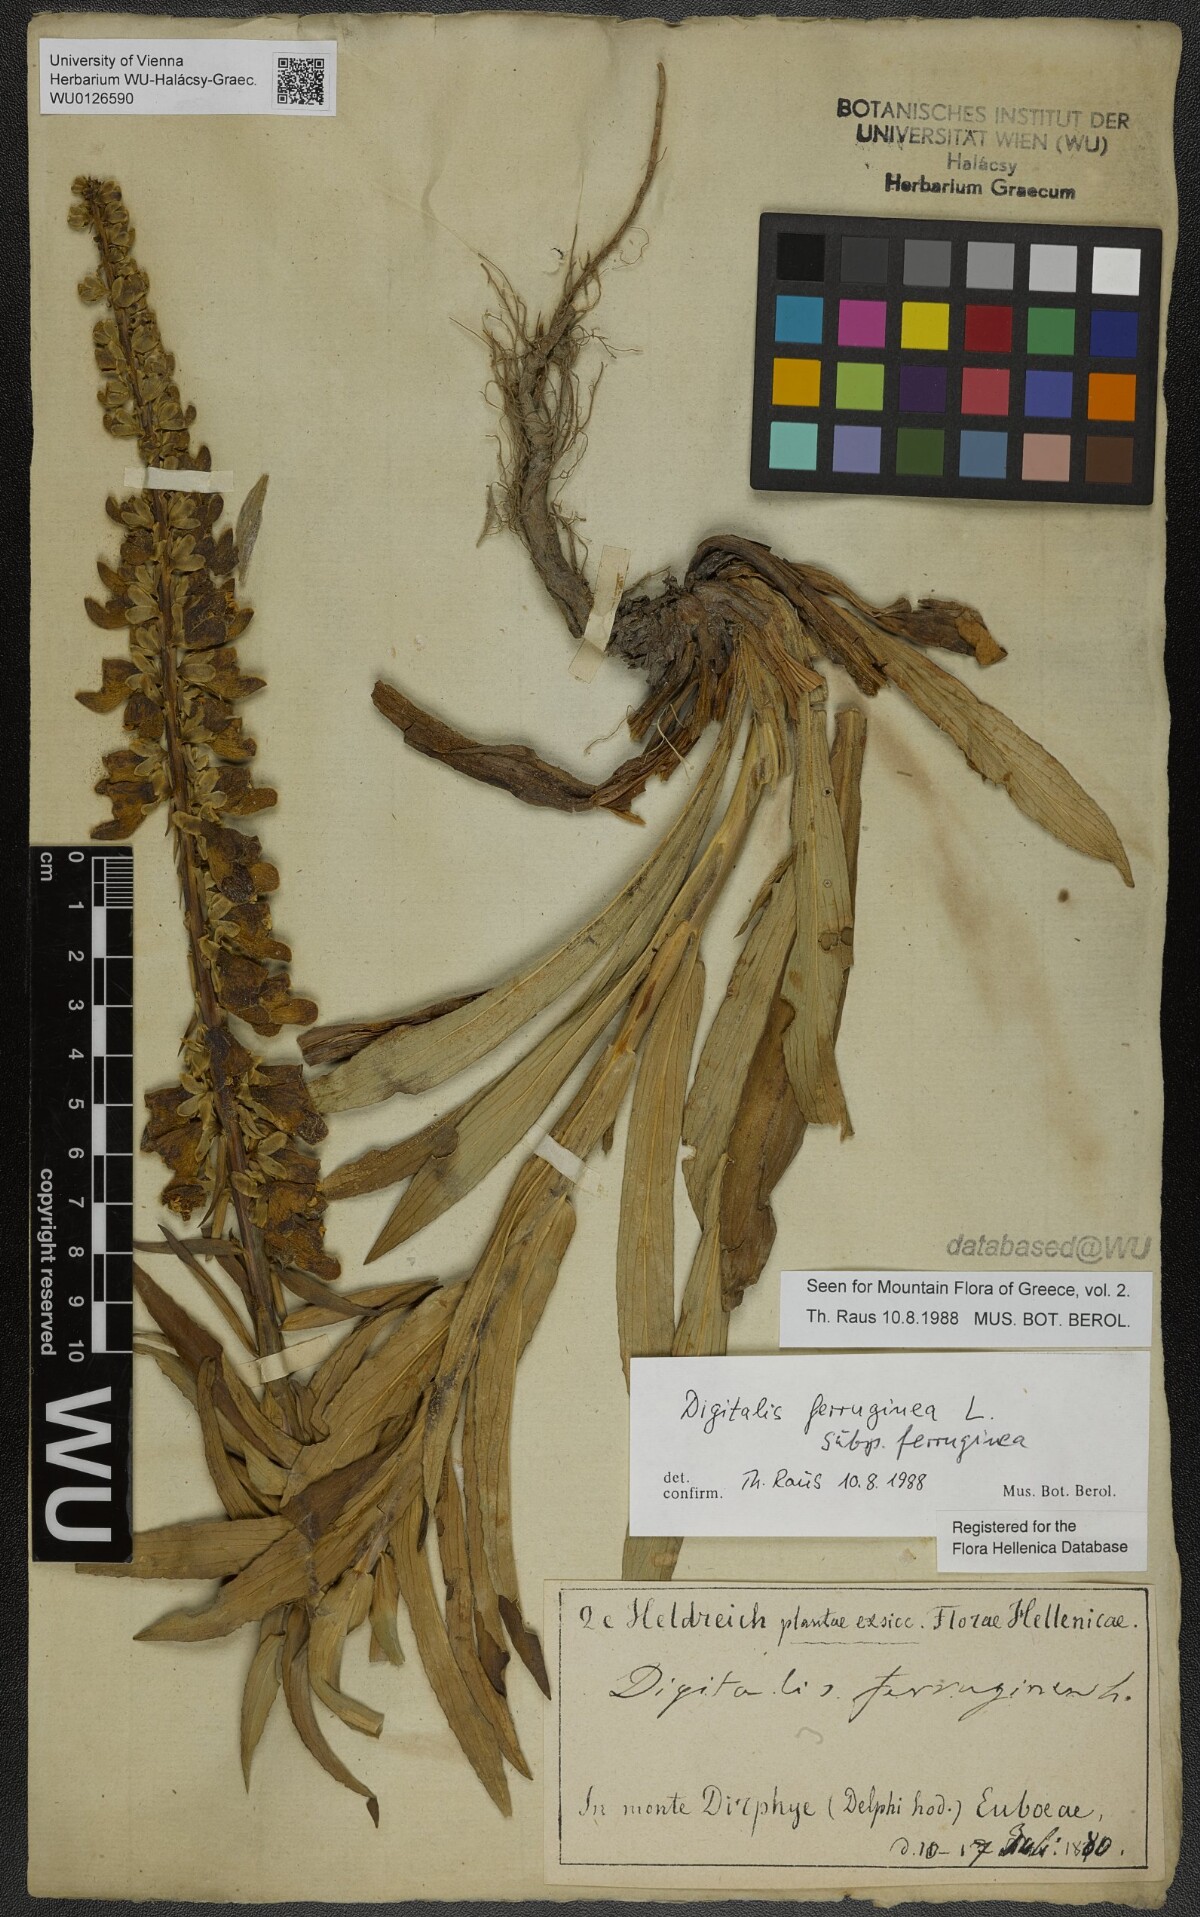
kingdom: Plantae
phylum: Tracheophyta
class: Magnoliopsida
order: Lamiales
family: Plantaginaceae
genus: Digitalis
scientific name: Digitalis ferruginea
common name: Rusty foxglove
